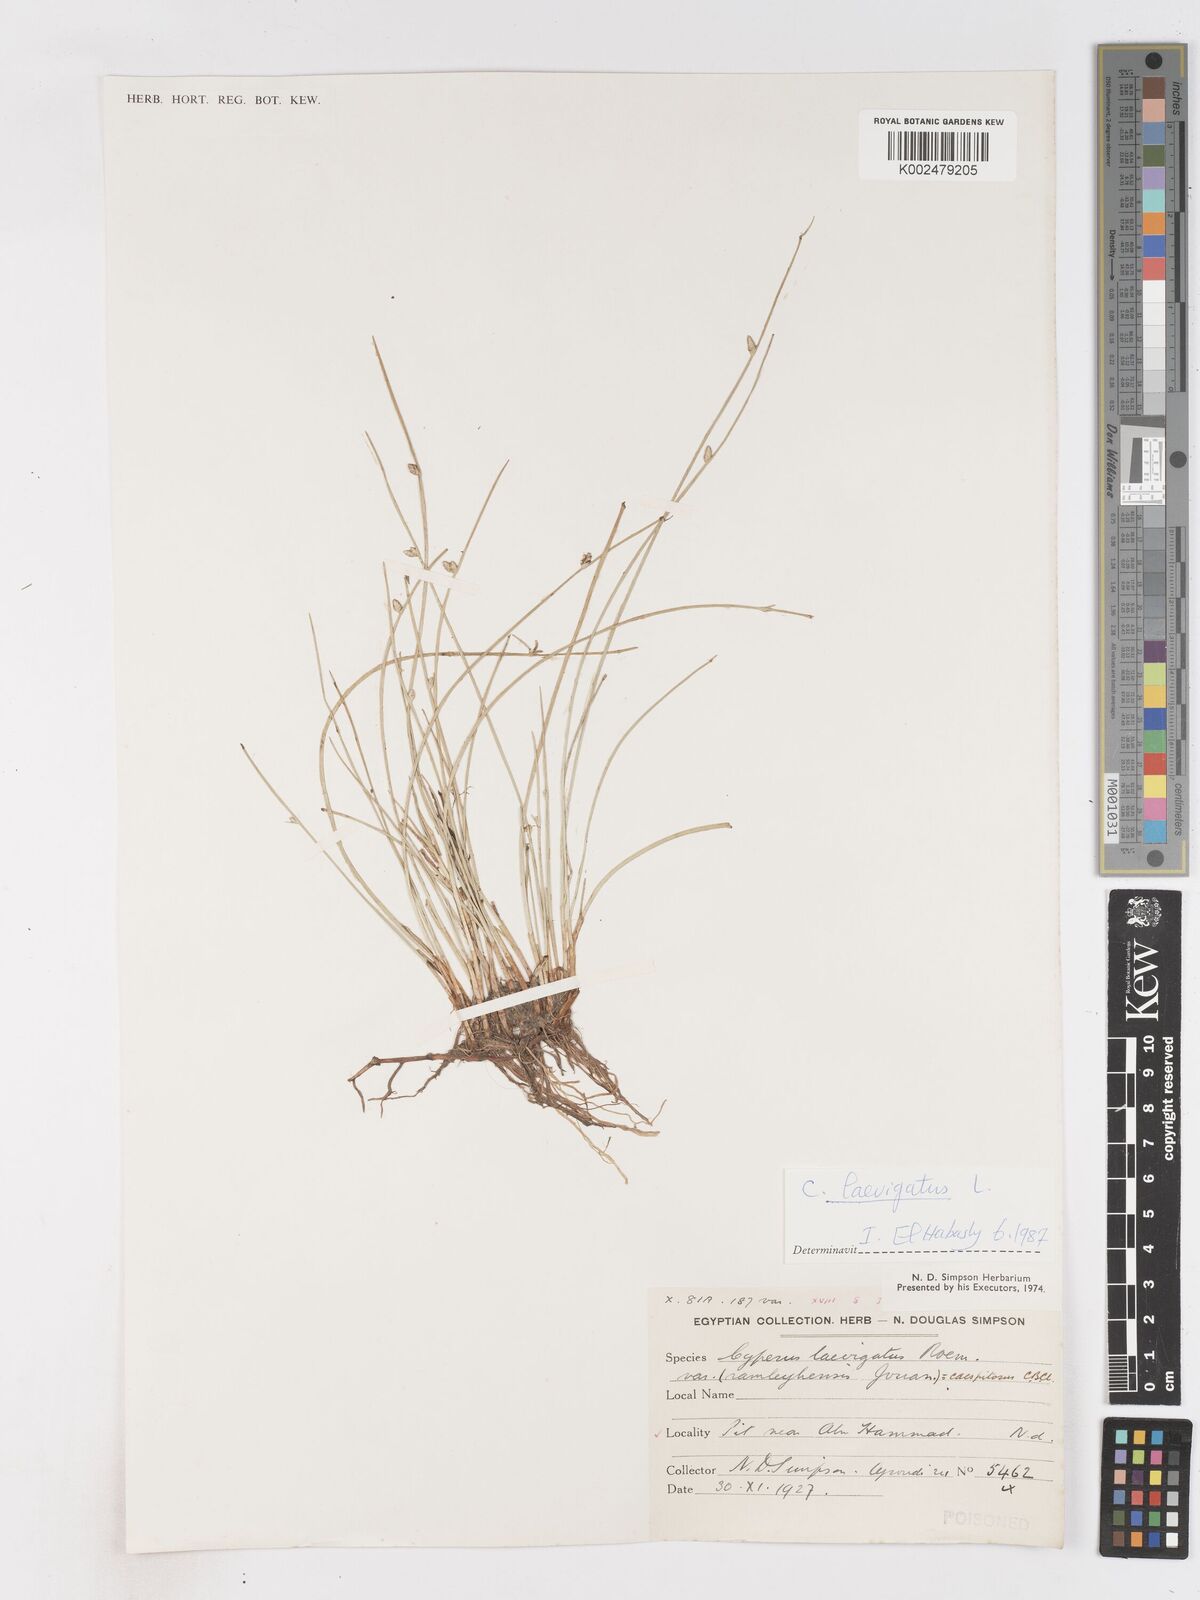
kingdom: Plantae
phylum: Tracheophyta
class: Liliopsida
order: Poales
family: Cyperaceae
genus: Cyperus
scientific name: Cyperus laevigatus
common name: Smooth flat sedge
